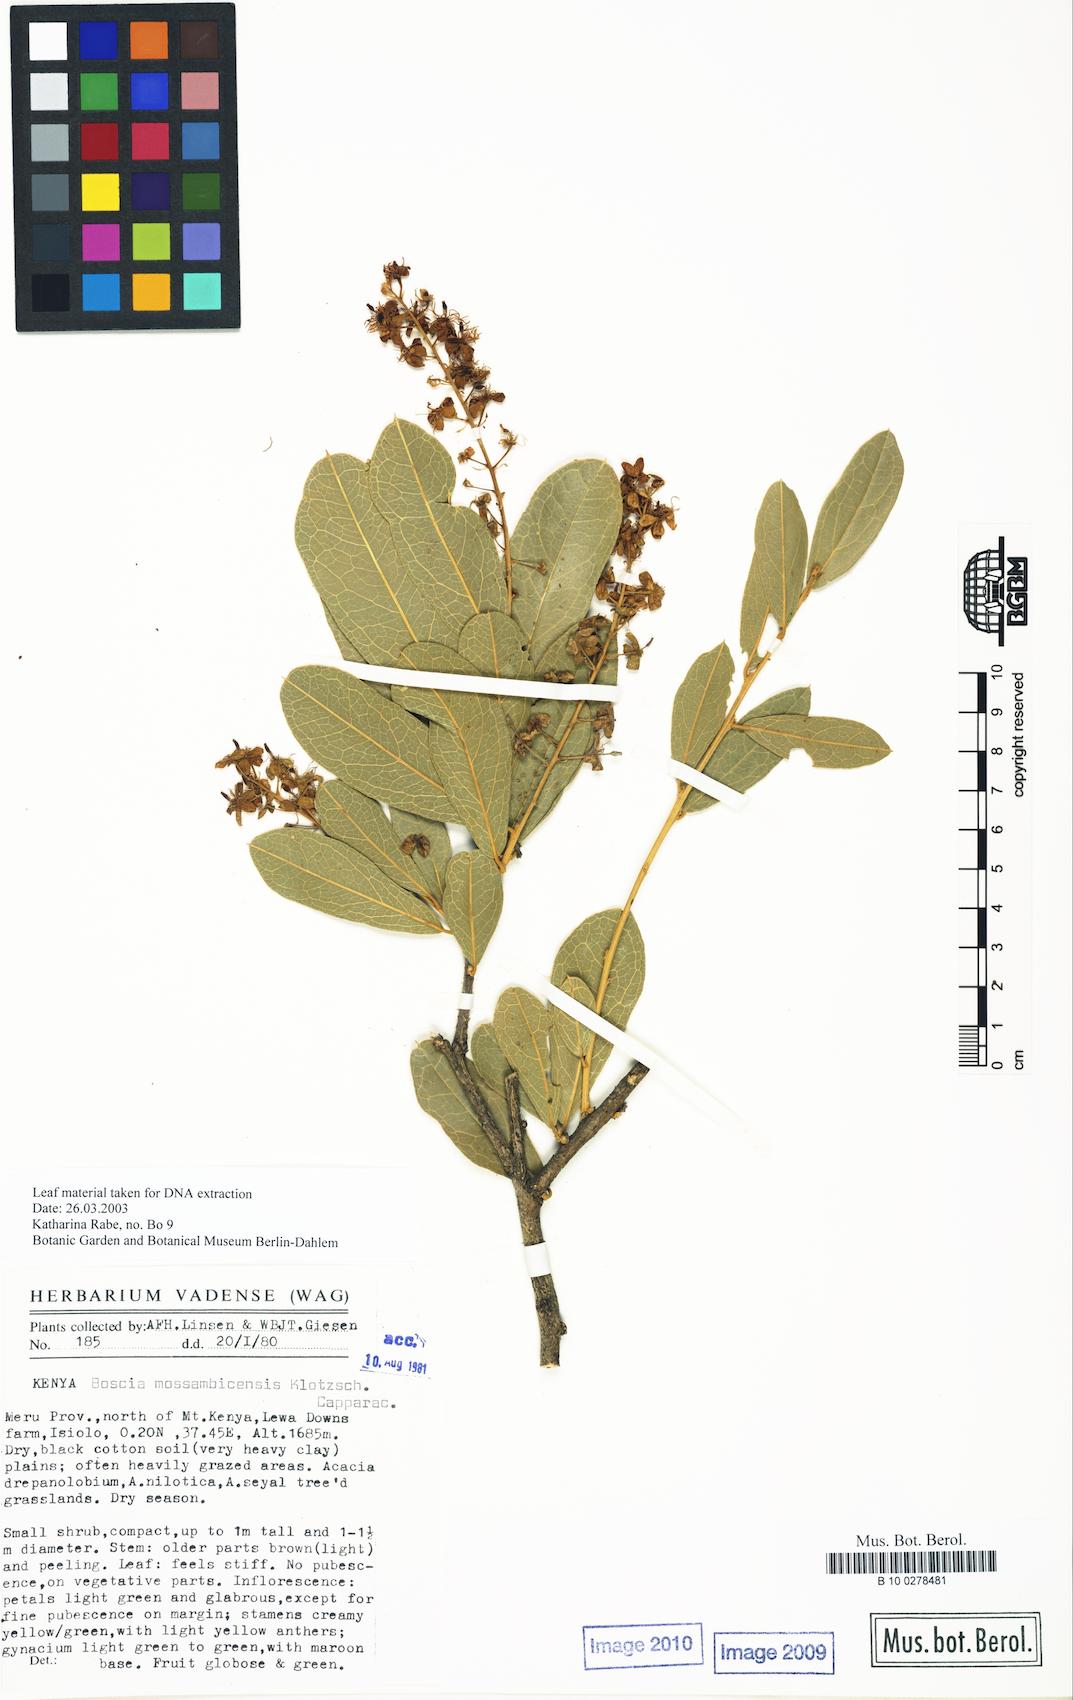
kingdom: Plantae
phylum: Tracheophyta
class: Magnoliopsida
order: Brassicales
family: Capparaceae
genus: Boscia
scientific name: Boscia mossambicensis
